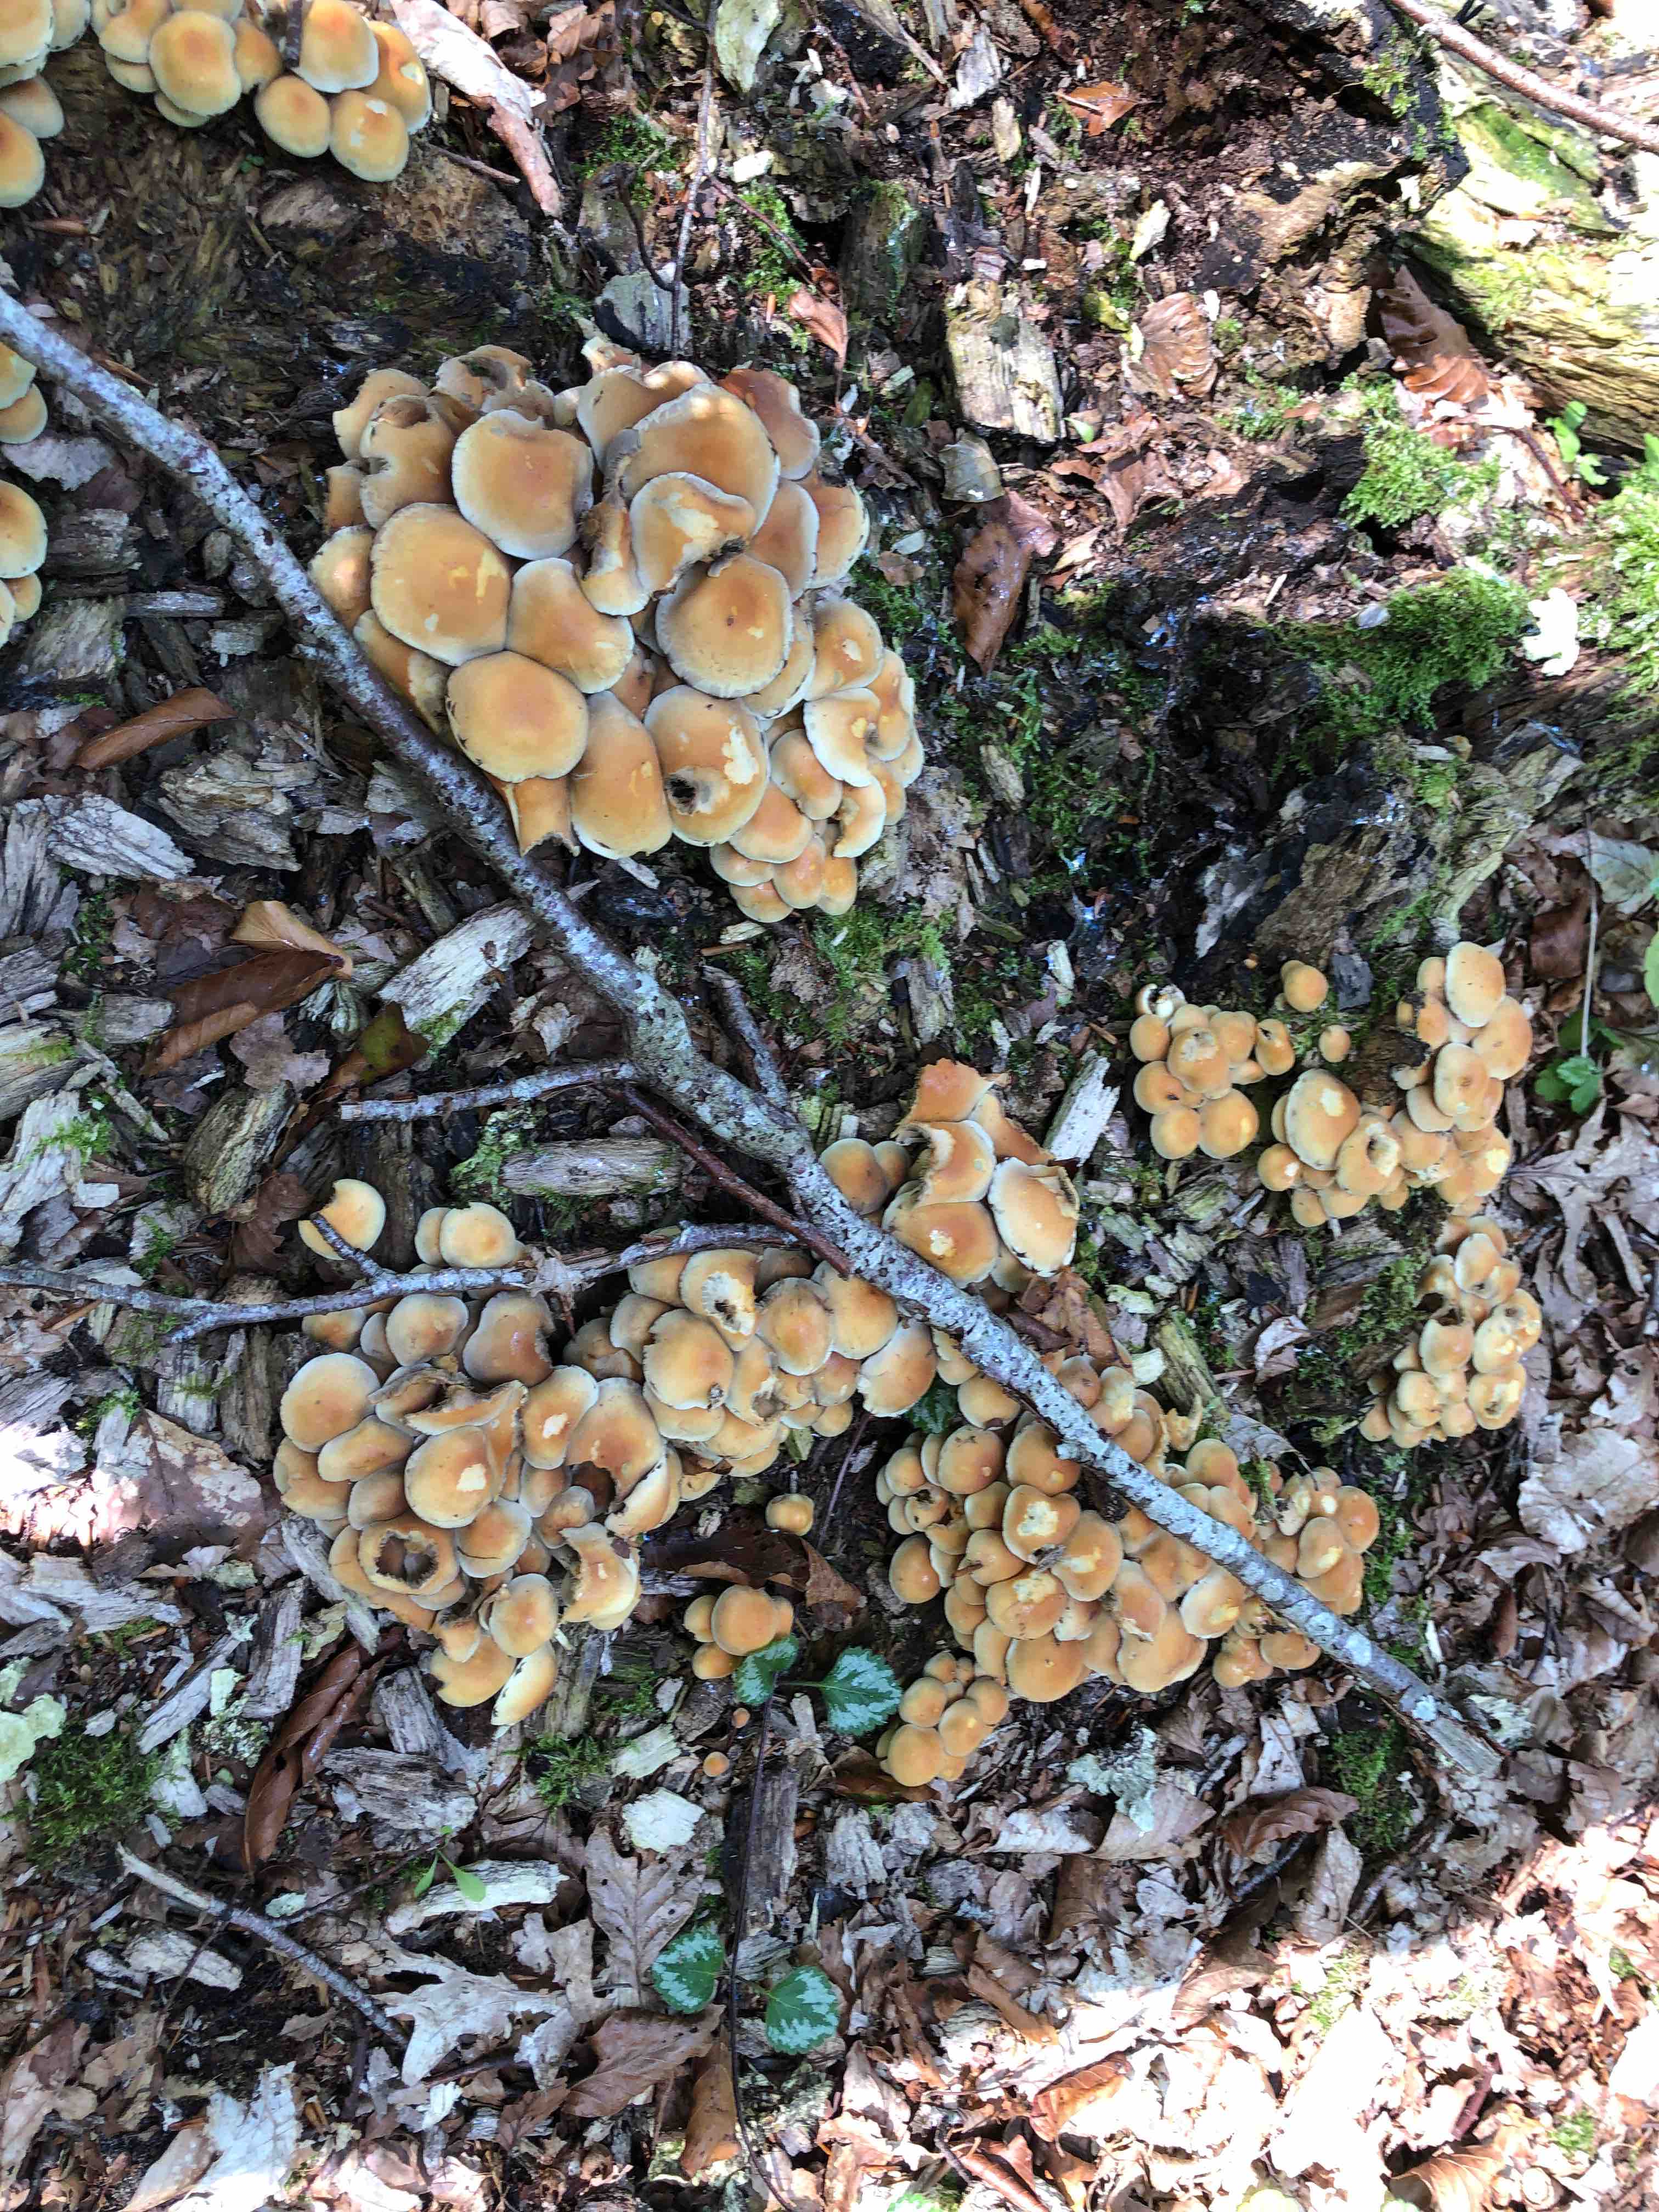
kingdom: Fungi
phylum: Basidiomycota
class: Agaricomycetes
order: Agaricales
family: Strophariaceae
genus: Hypholoma
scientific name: Hypholoma fasciculare
